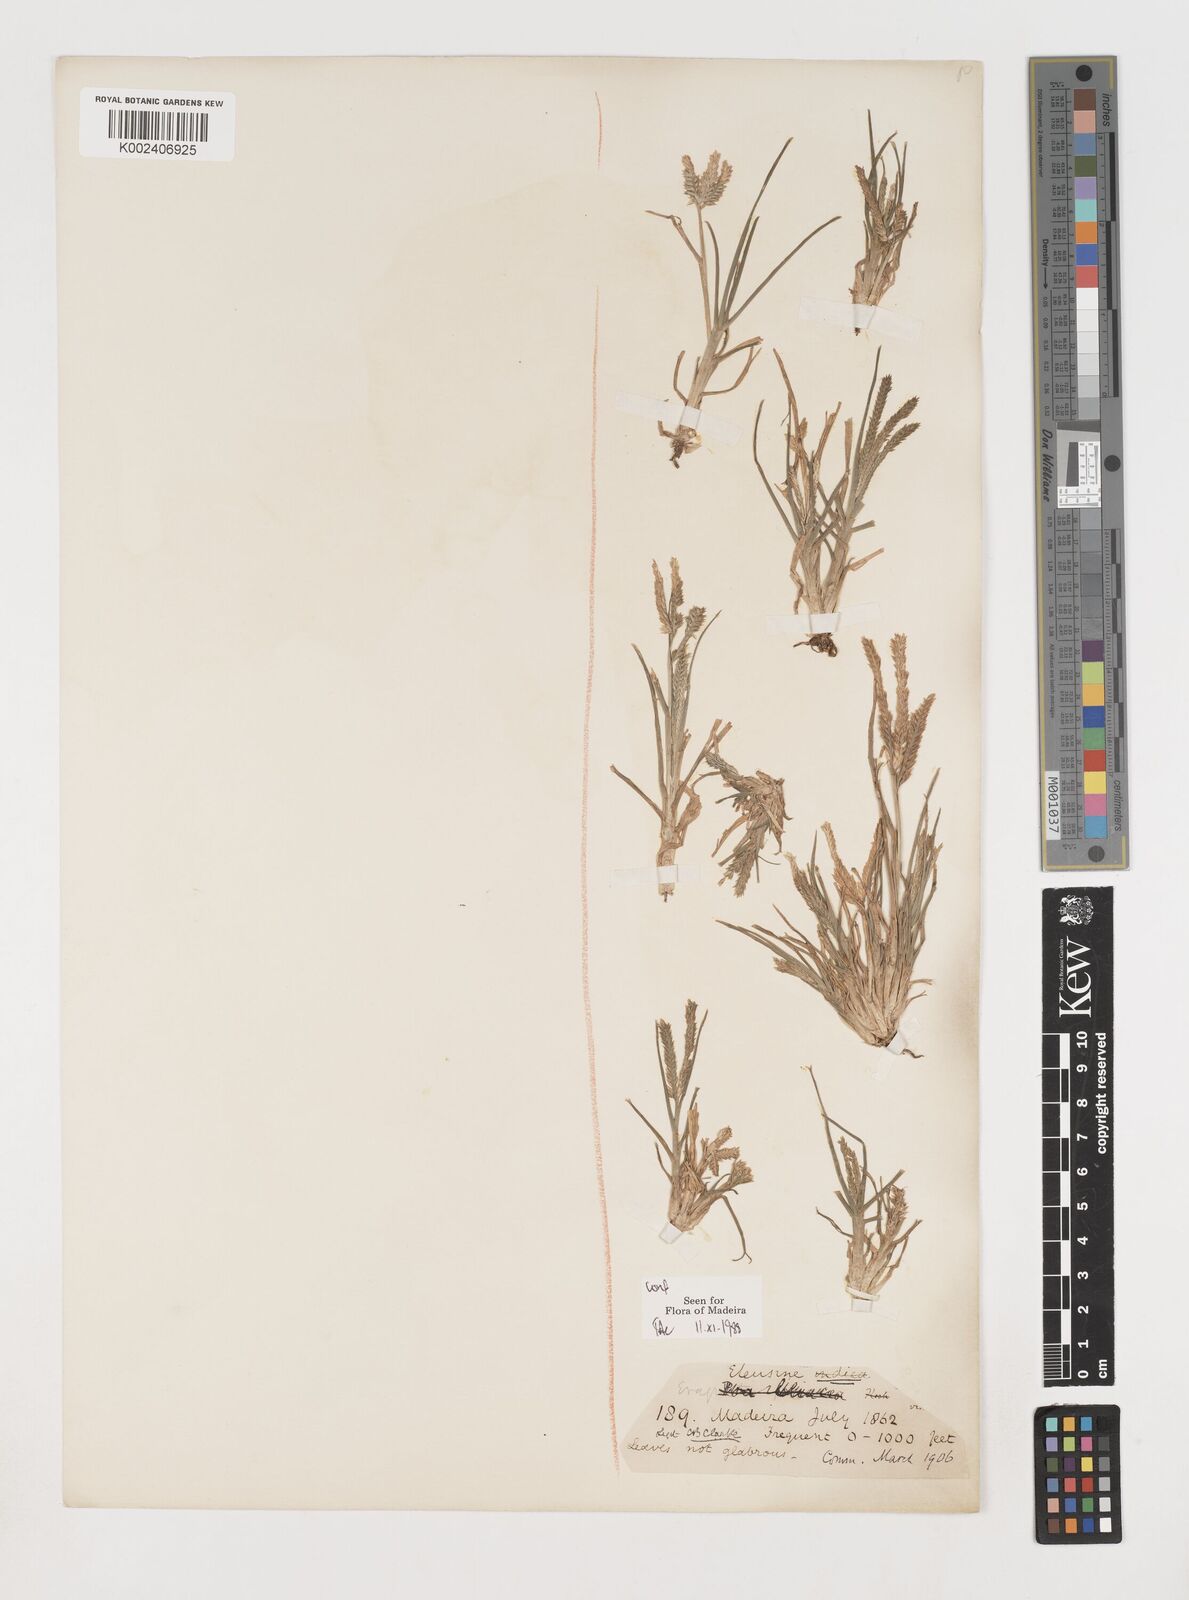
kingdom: Plantae
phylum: Tracheophyta
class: Liliopsida
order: Poales
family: Poaceae
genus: Eleusine
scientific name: Eleusine indica
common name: Yard-grass
